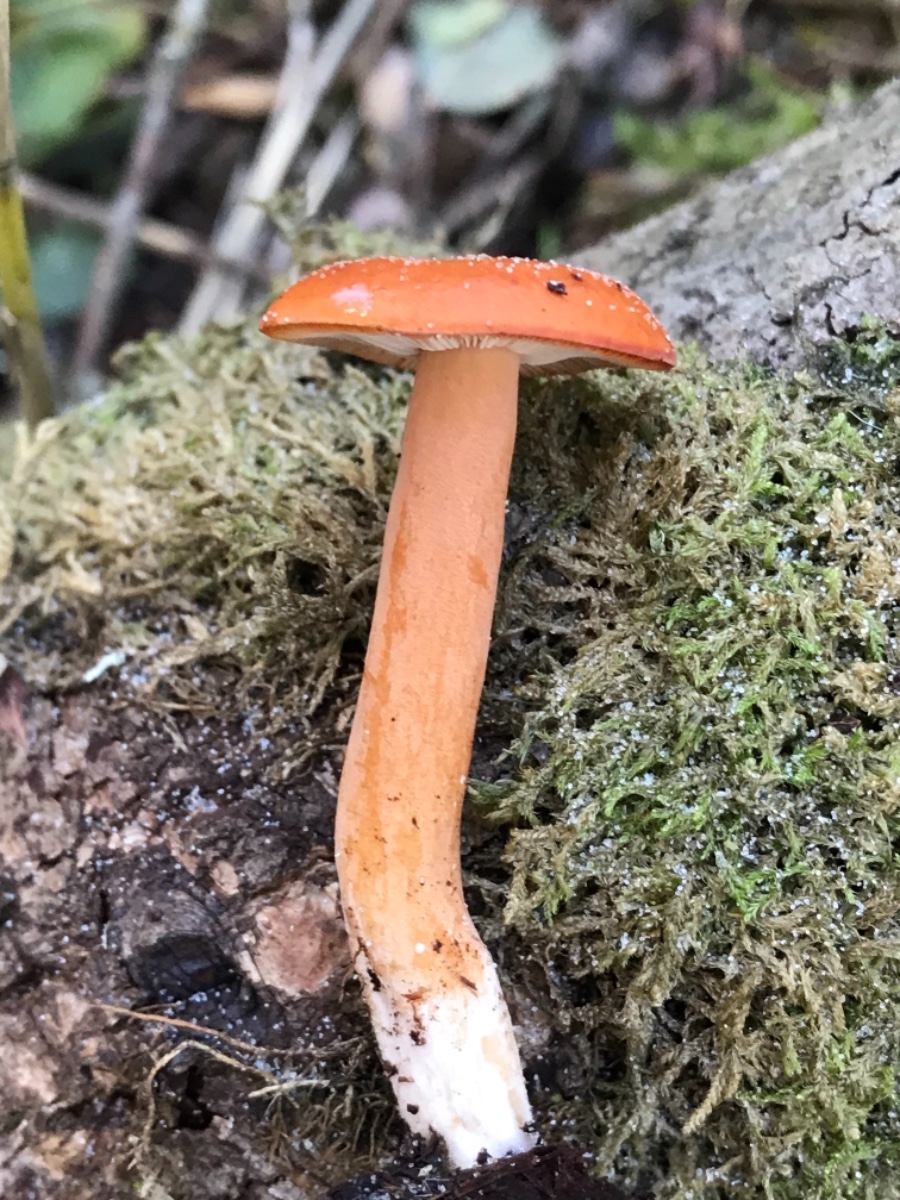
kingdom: Fungi
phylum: Basidiomycota
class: Agaricomycetes
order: Russulales
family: Russulaceae
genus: Lactarius
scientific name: Lactarius aurantiacus
